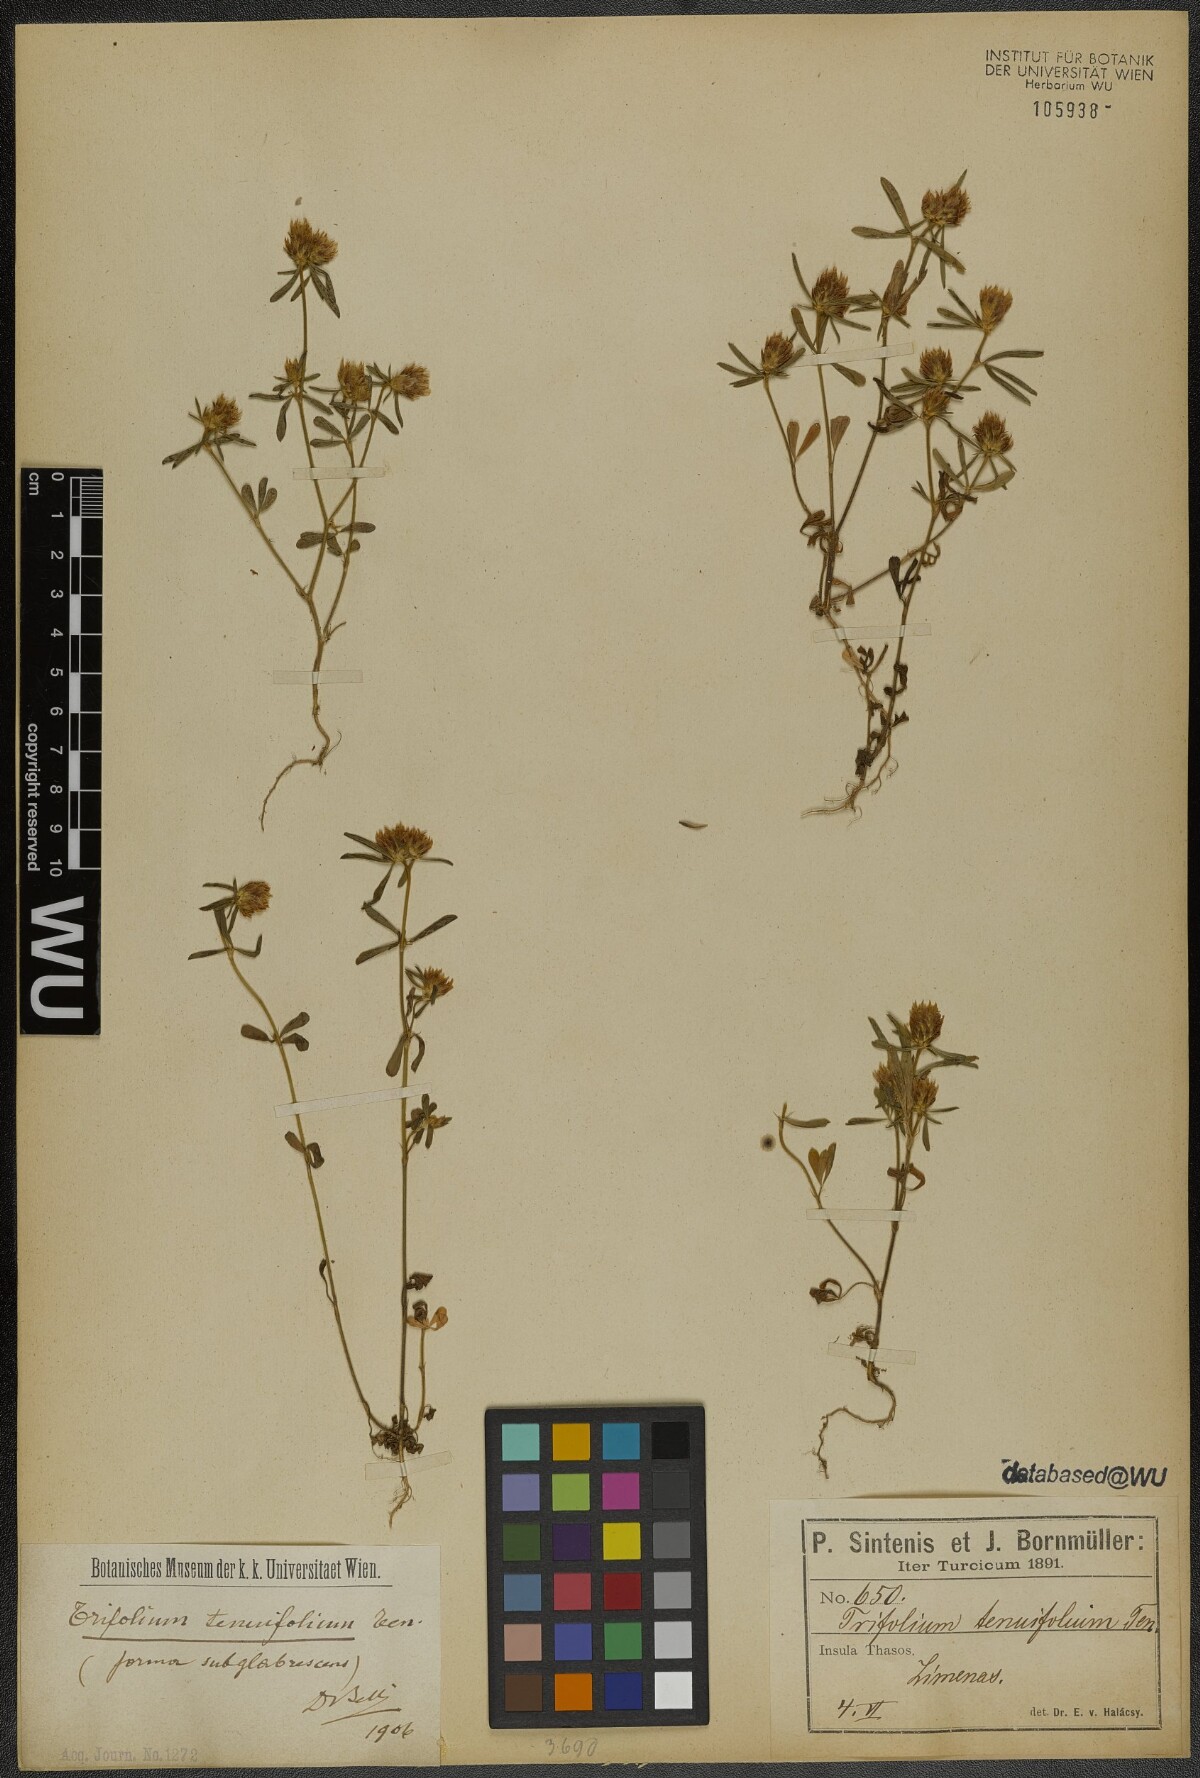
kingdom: Plantae
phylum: Tracheophyta
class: Magnoliopsida
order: Fabales
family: Fabaceae
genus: Trifolium
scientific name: Trifolium tenuifolium
